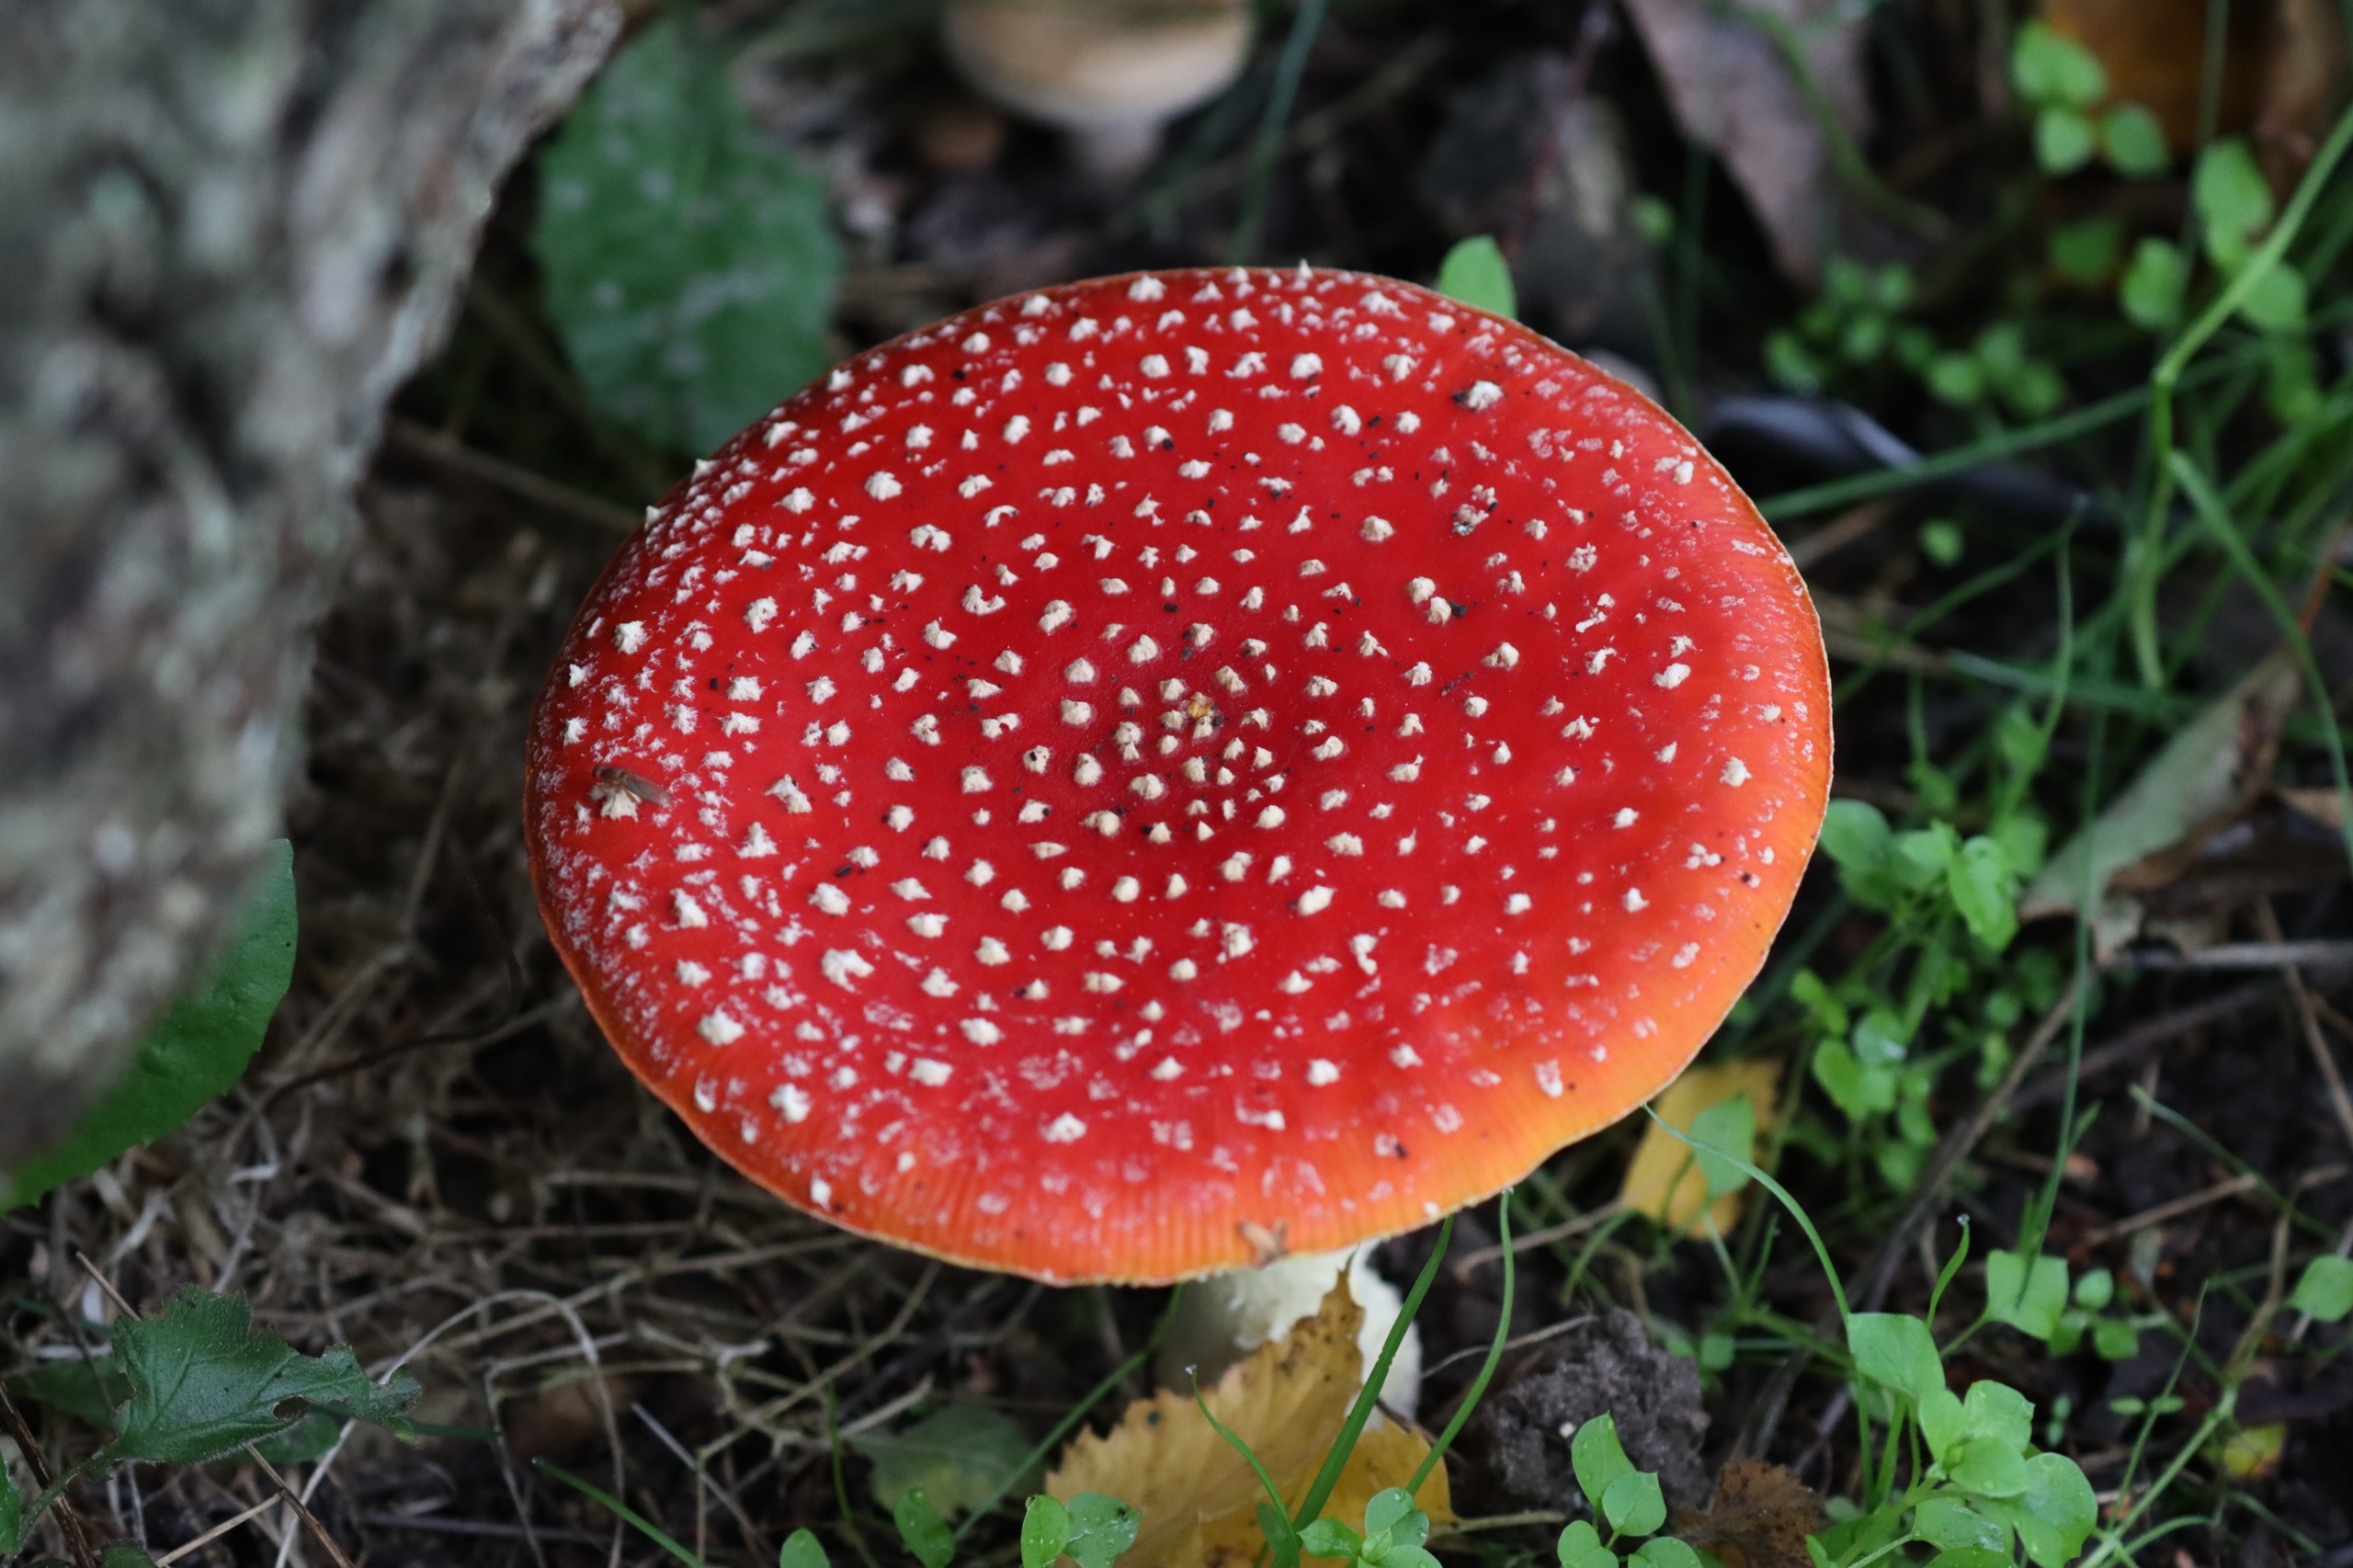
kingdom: Fungi
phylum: Basidiomycota
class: Agaricomycetes
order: Agaricales
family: Amanitaceae
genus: Amanita
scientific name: Amanita muscaria
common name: Rød fluesvamp
